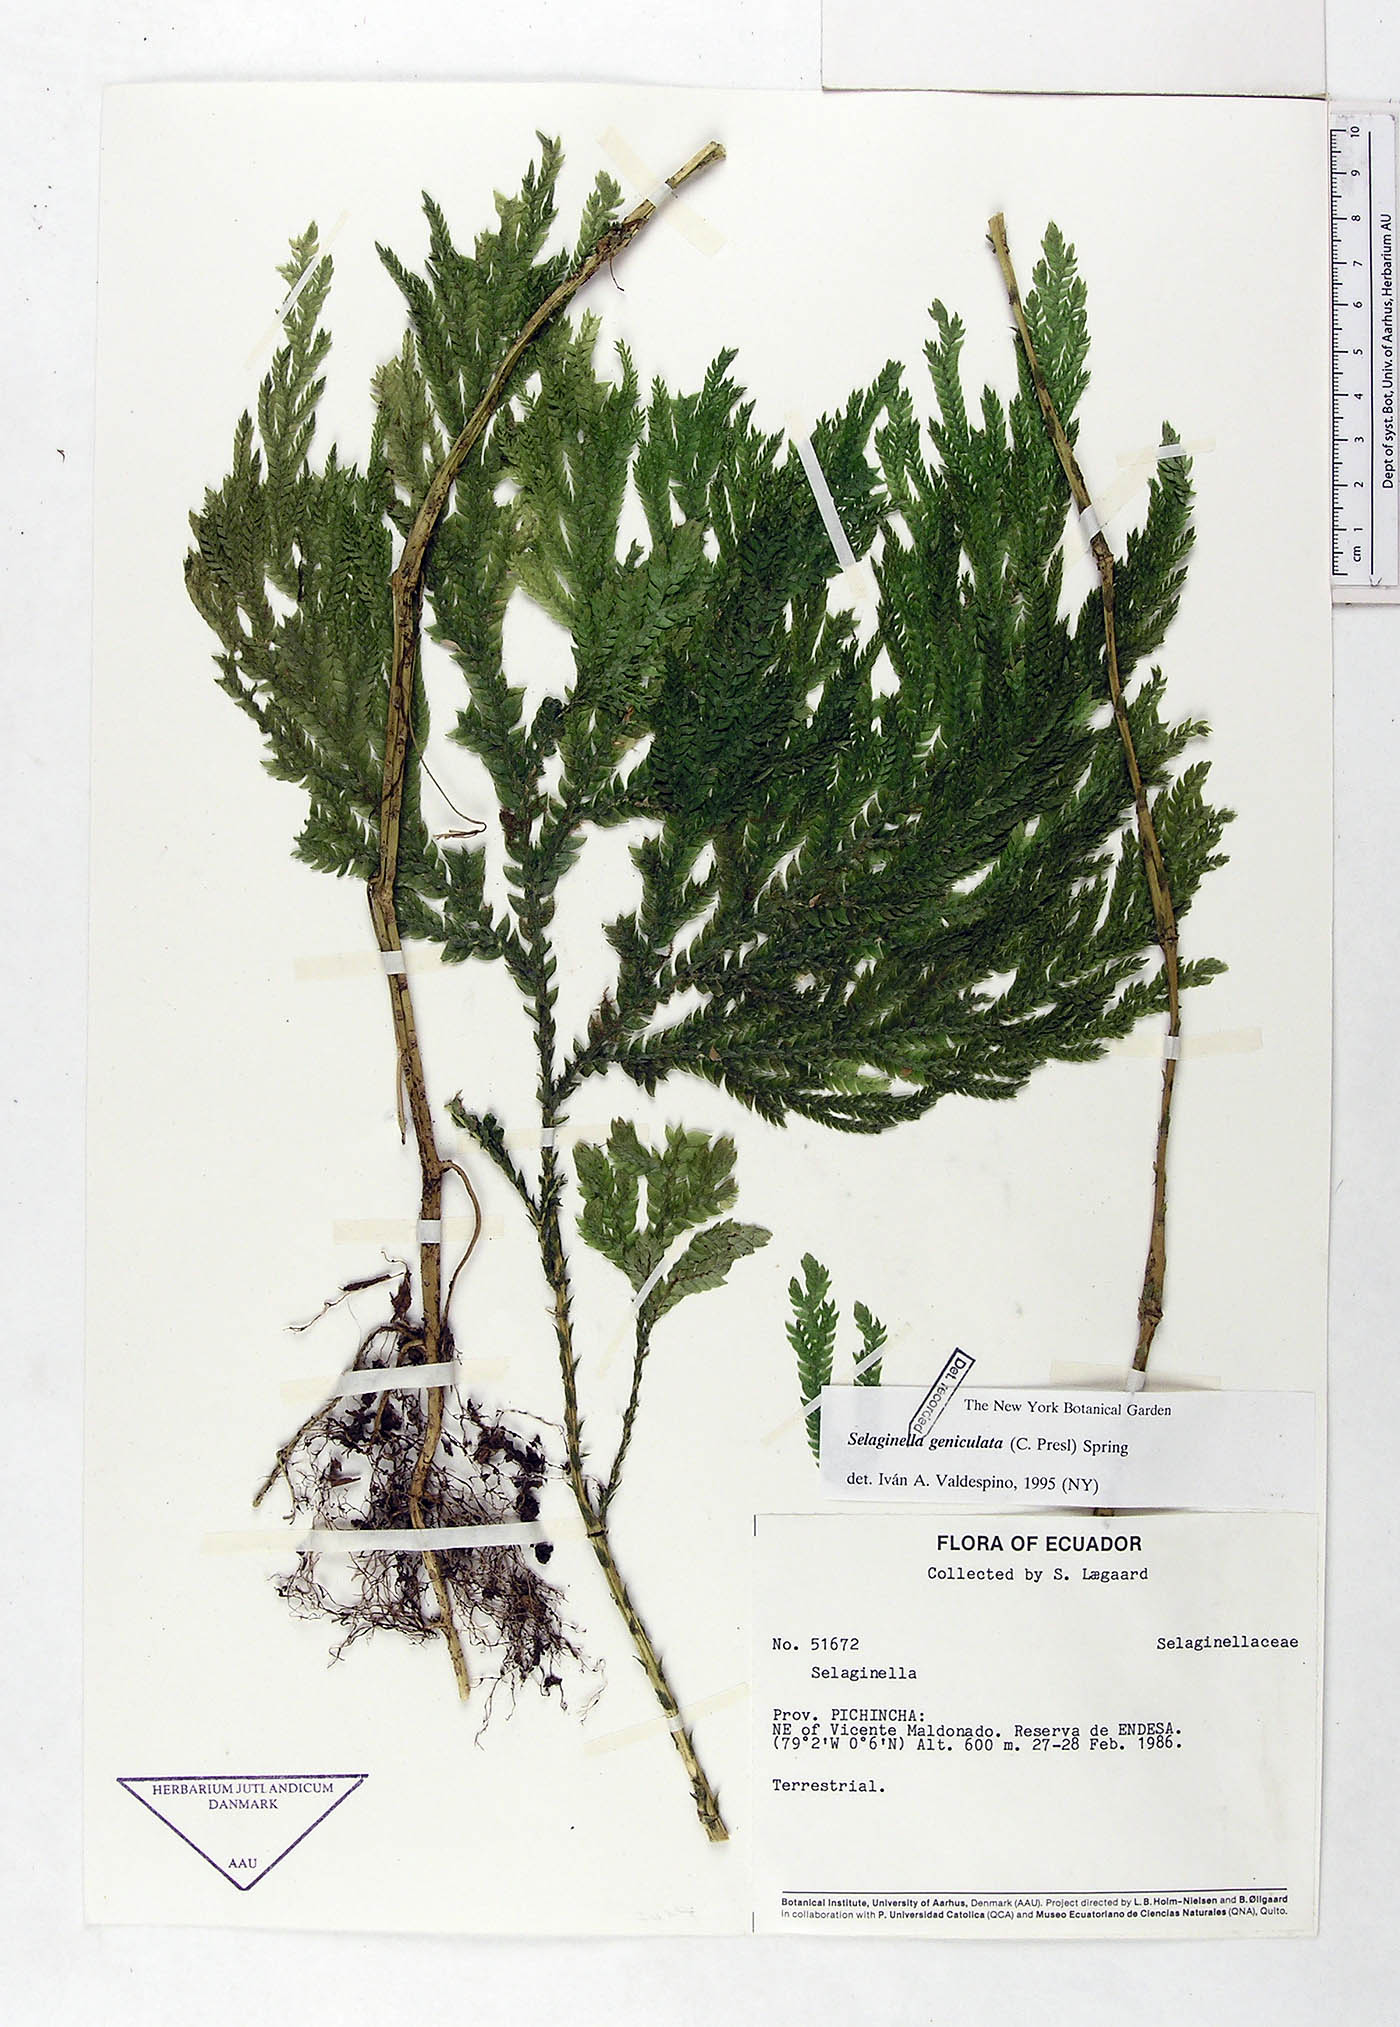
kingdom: Plantae
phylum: Tracheophyta
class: Lycopodiopsida
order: Selaginellales
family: Selaginellaceae
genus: Selaginella
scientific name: Selaginella geniculata
